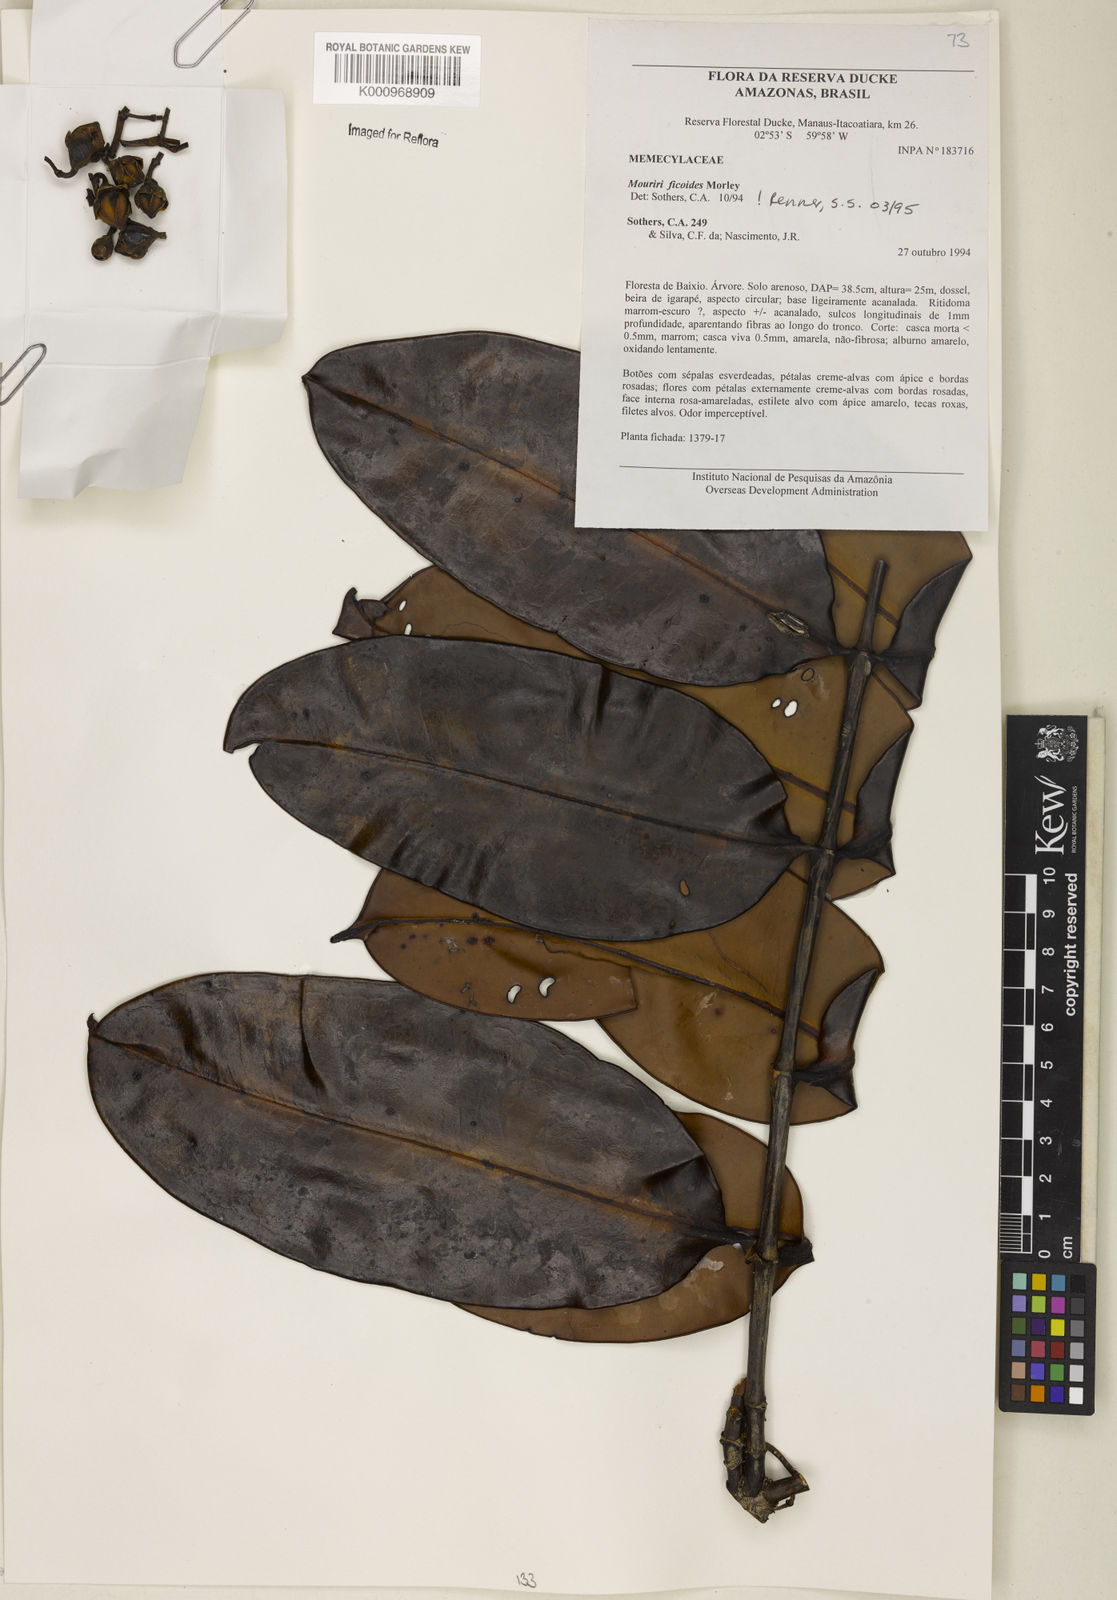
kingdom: Plantae
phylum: Tracheophyta
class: Magnoliopsida
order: Myrtales
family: Melastomataceae
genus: Mouriri
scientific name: Mouriri ficoides
